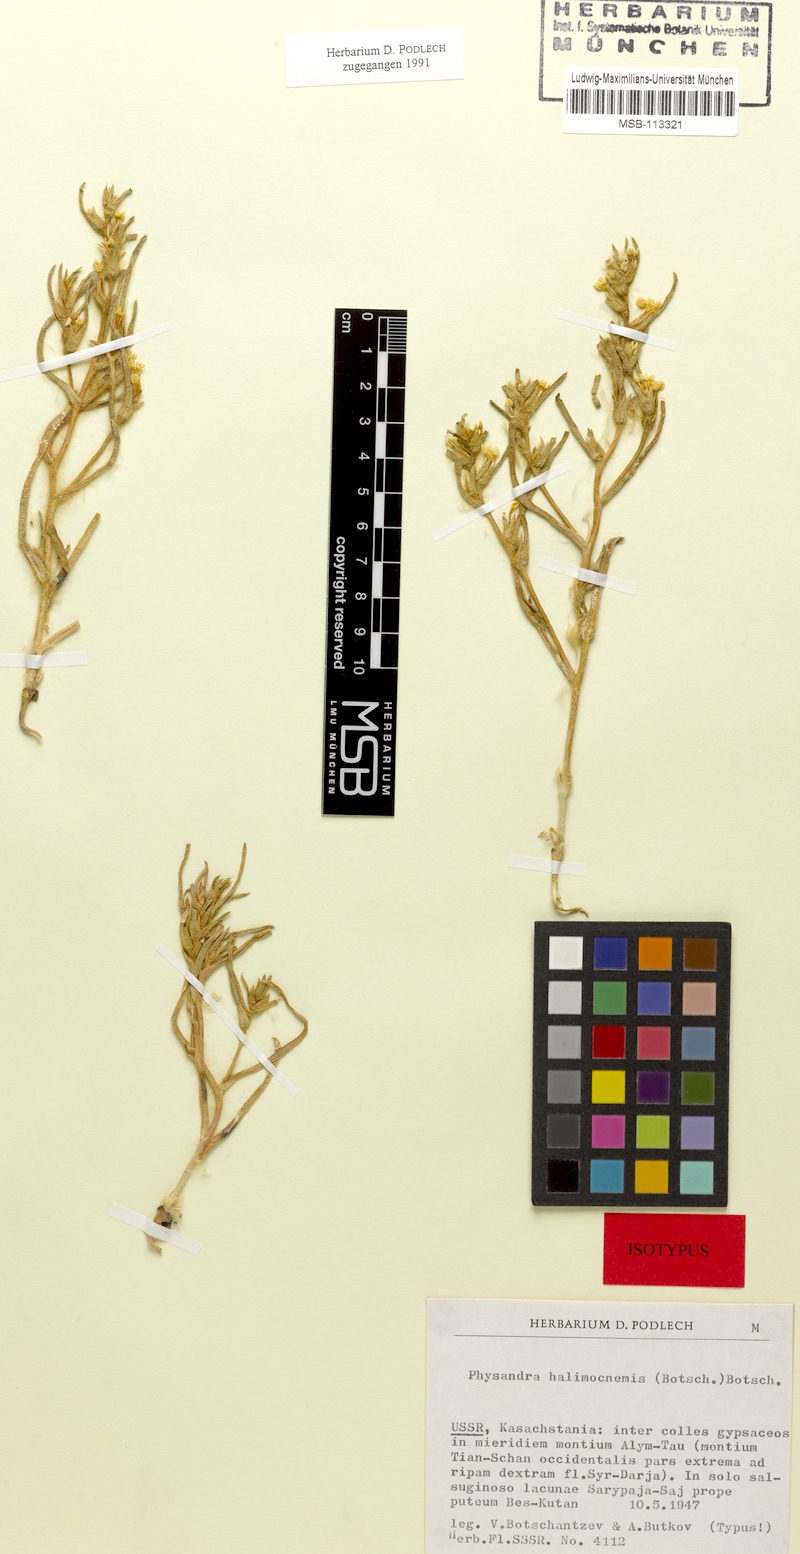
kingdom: Plantae
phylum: Tracheophyta
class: Magnoliopsida
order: Caryophyllales
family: Amaranthaceae
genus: Salsola
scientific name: Salsola halimocnemis
